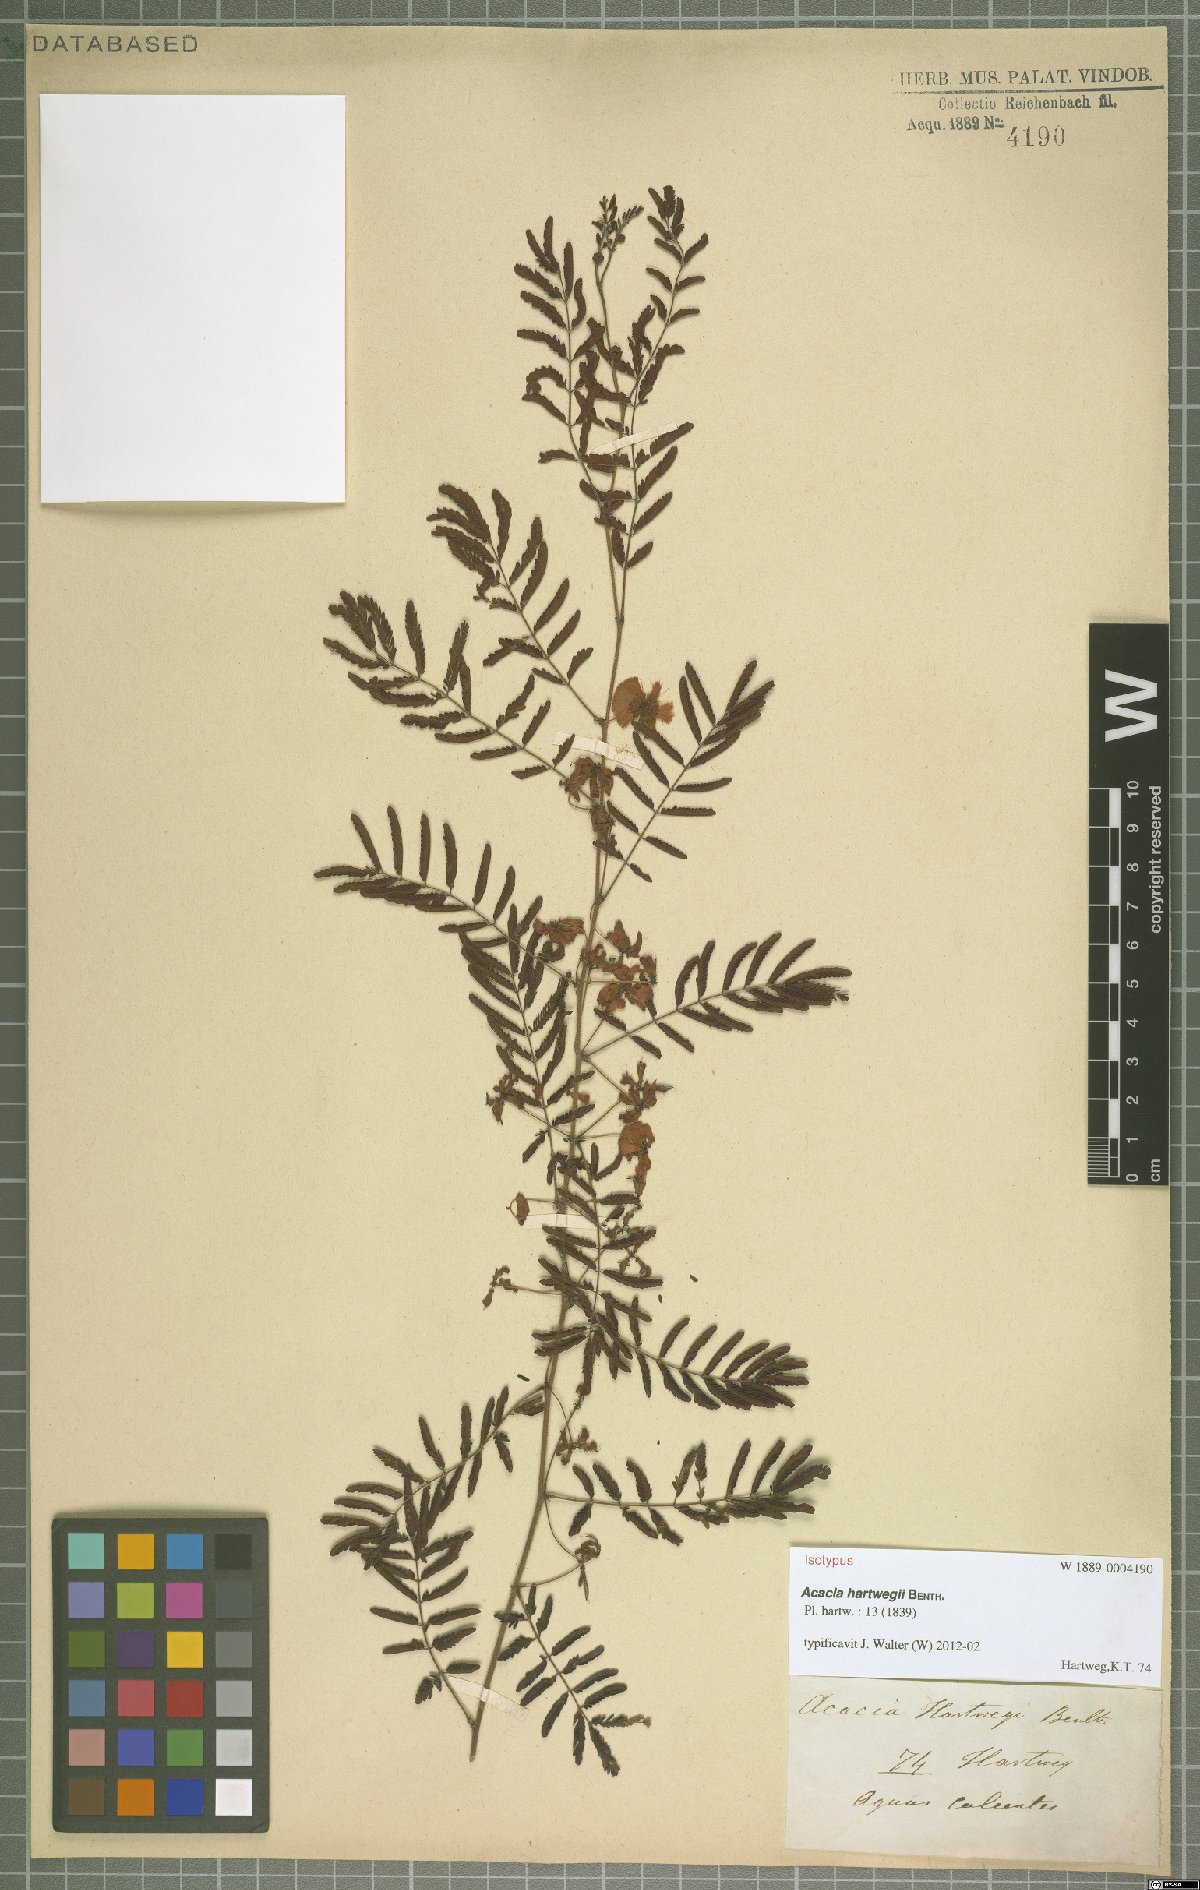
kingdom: Plantae
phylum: Tracheophyta
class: Magnoliopsida
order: Fabales
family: Fabaceae
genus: Acaciella
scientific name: Acaciella hartwegii
